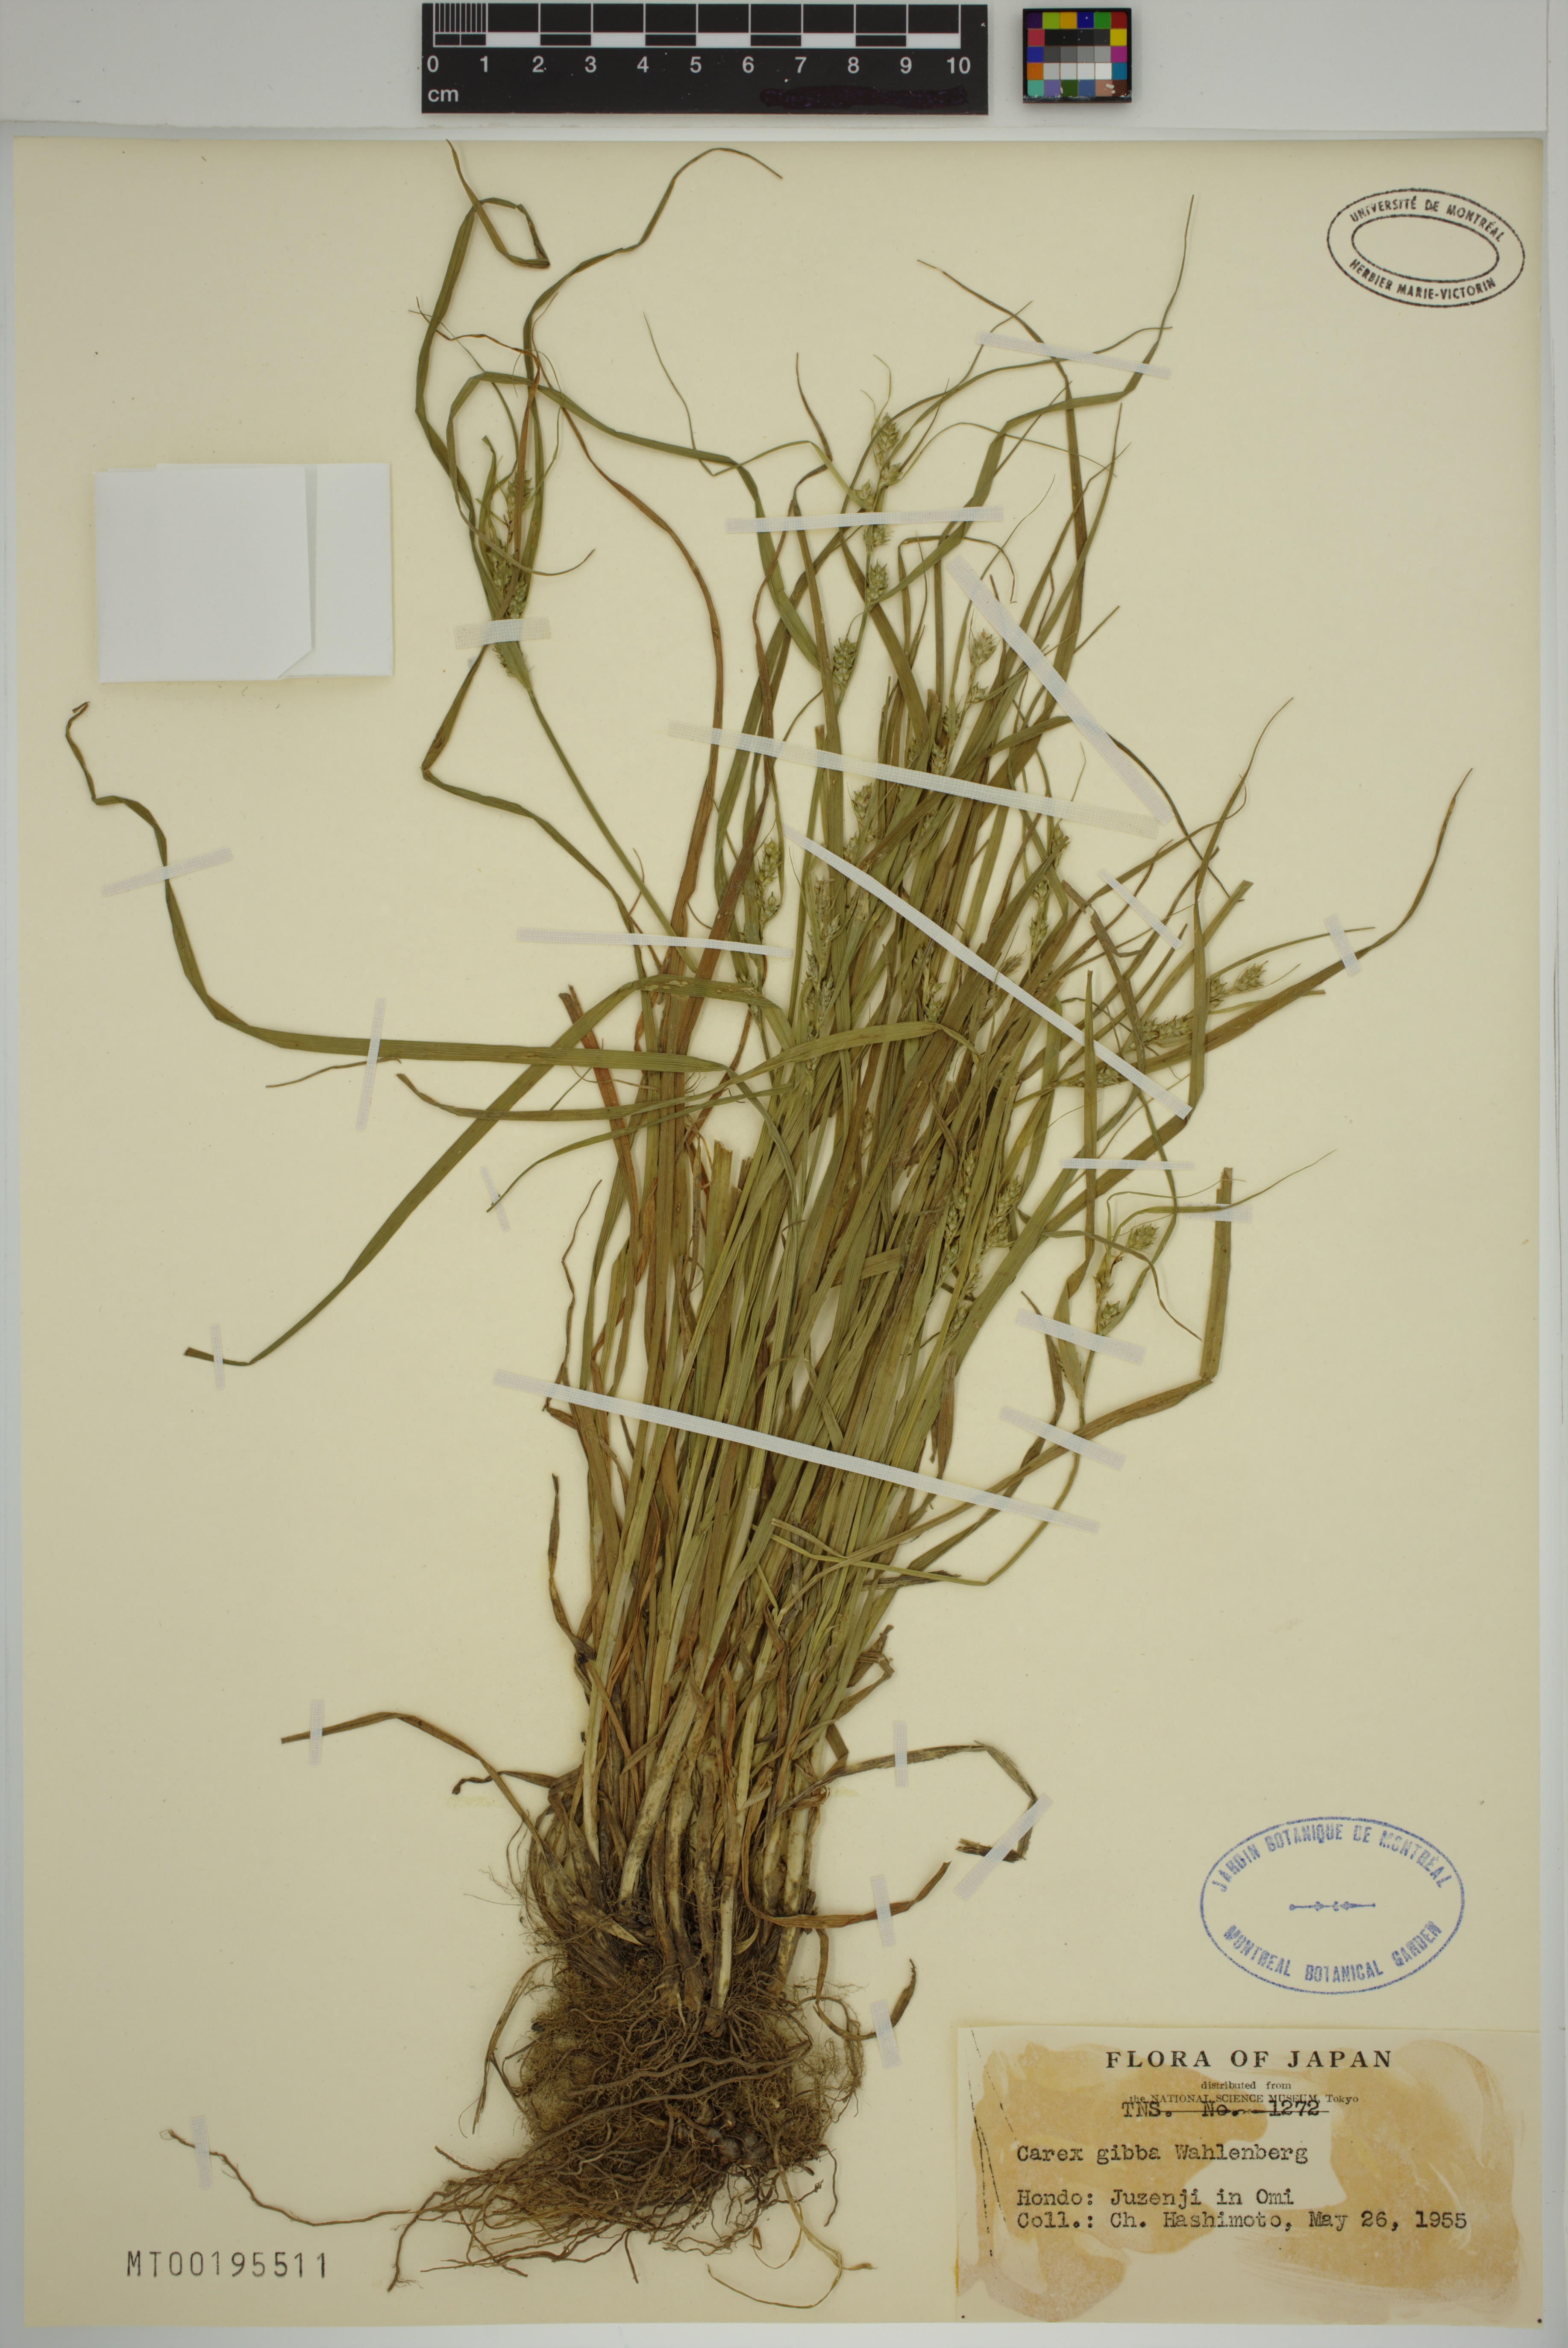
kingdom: Plantae
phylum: Tracheophyta
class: Liliopsida
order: Poales
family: Cyperaceae
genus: Carex
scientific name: Carex gibba
